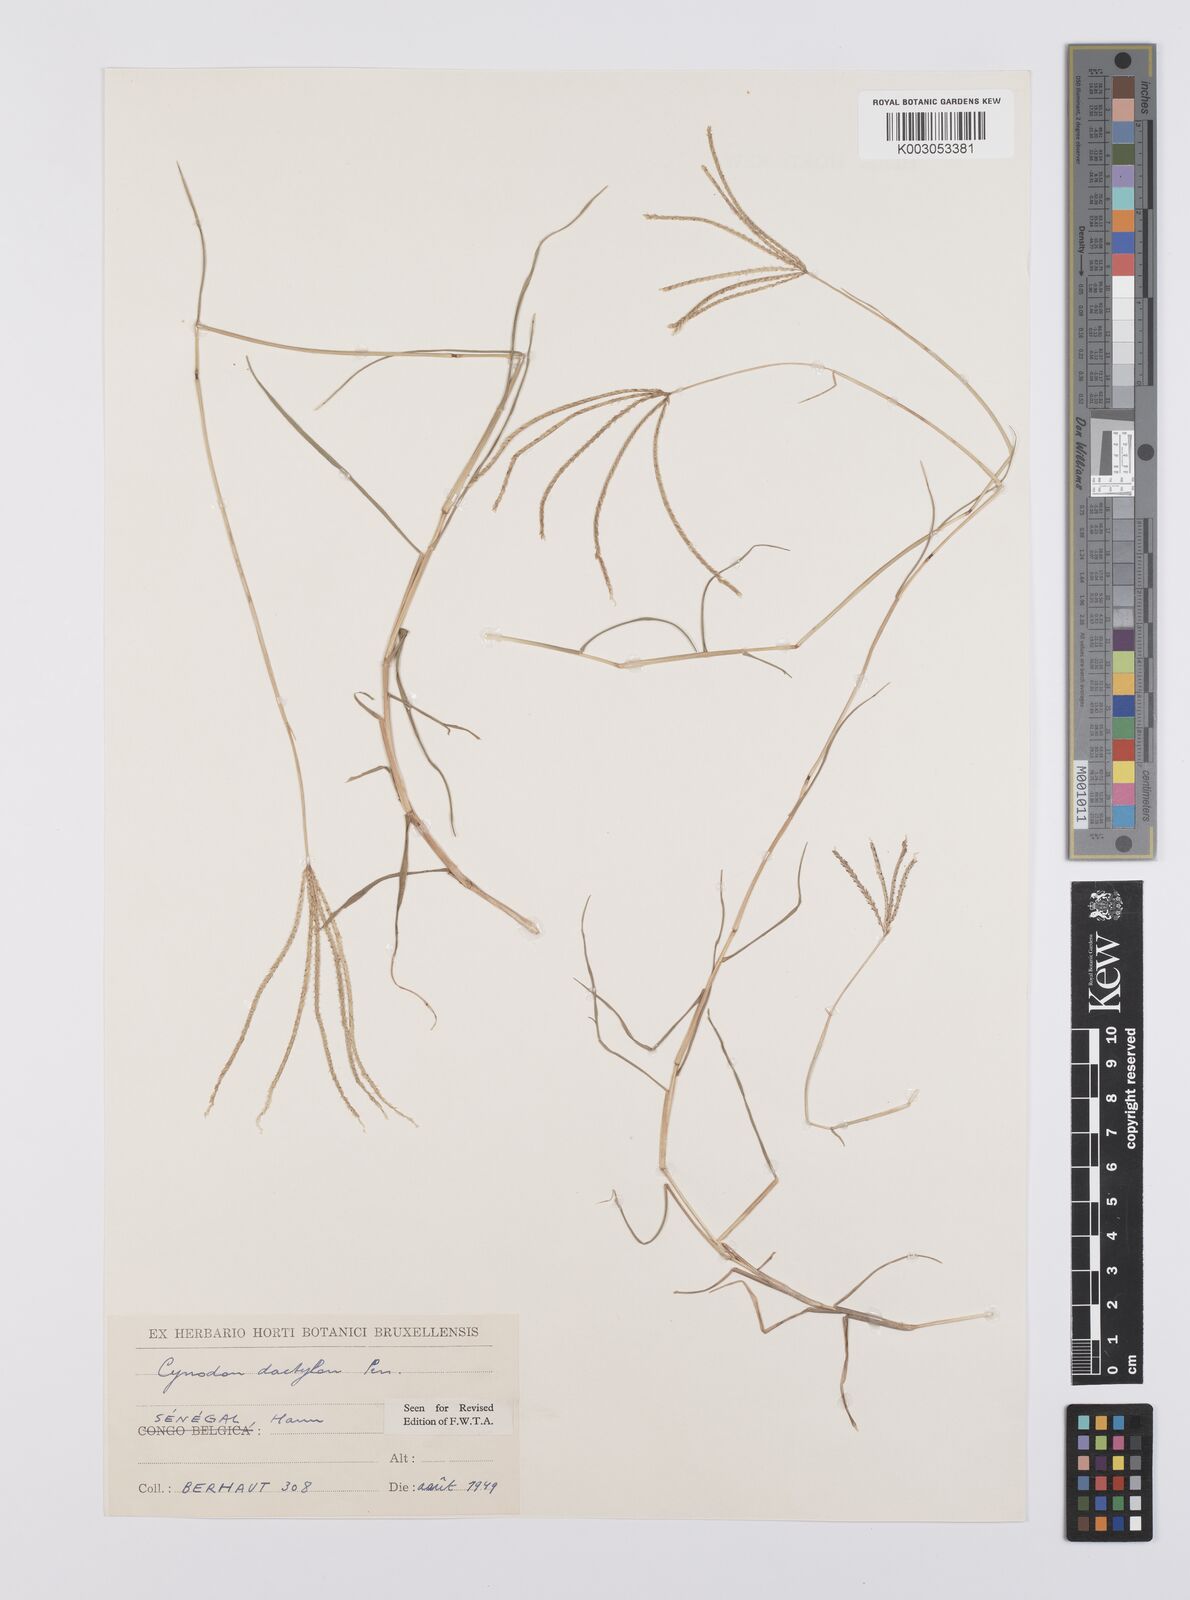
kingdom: Plantae
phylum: Tracheophyta
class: Liliopsida
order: Poales
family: Poaceae
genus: Cynodon
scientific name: Cynodon dactylon
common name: Bermuda grass
